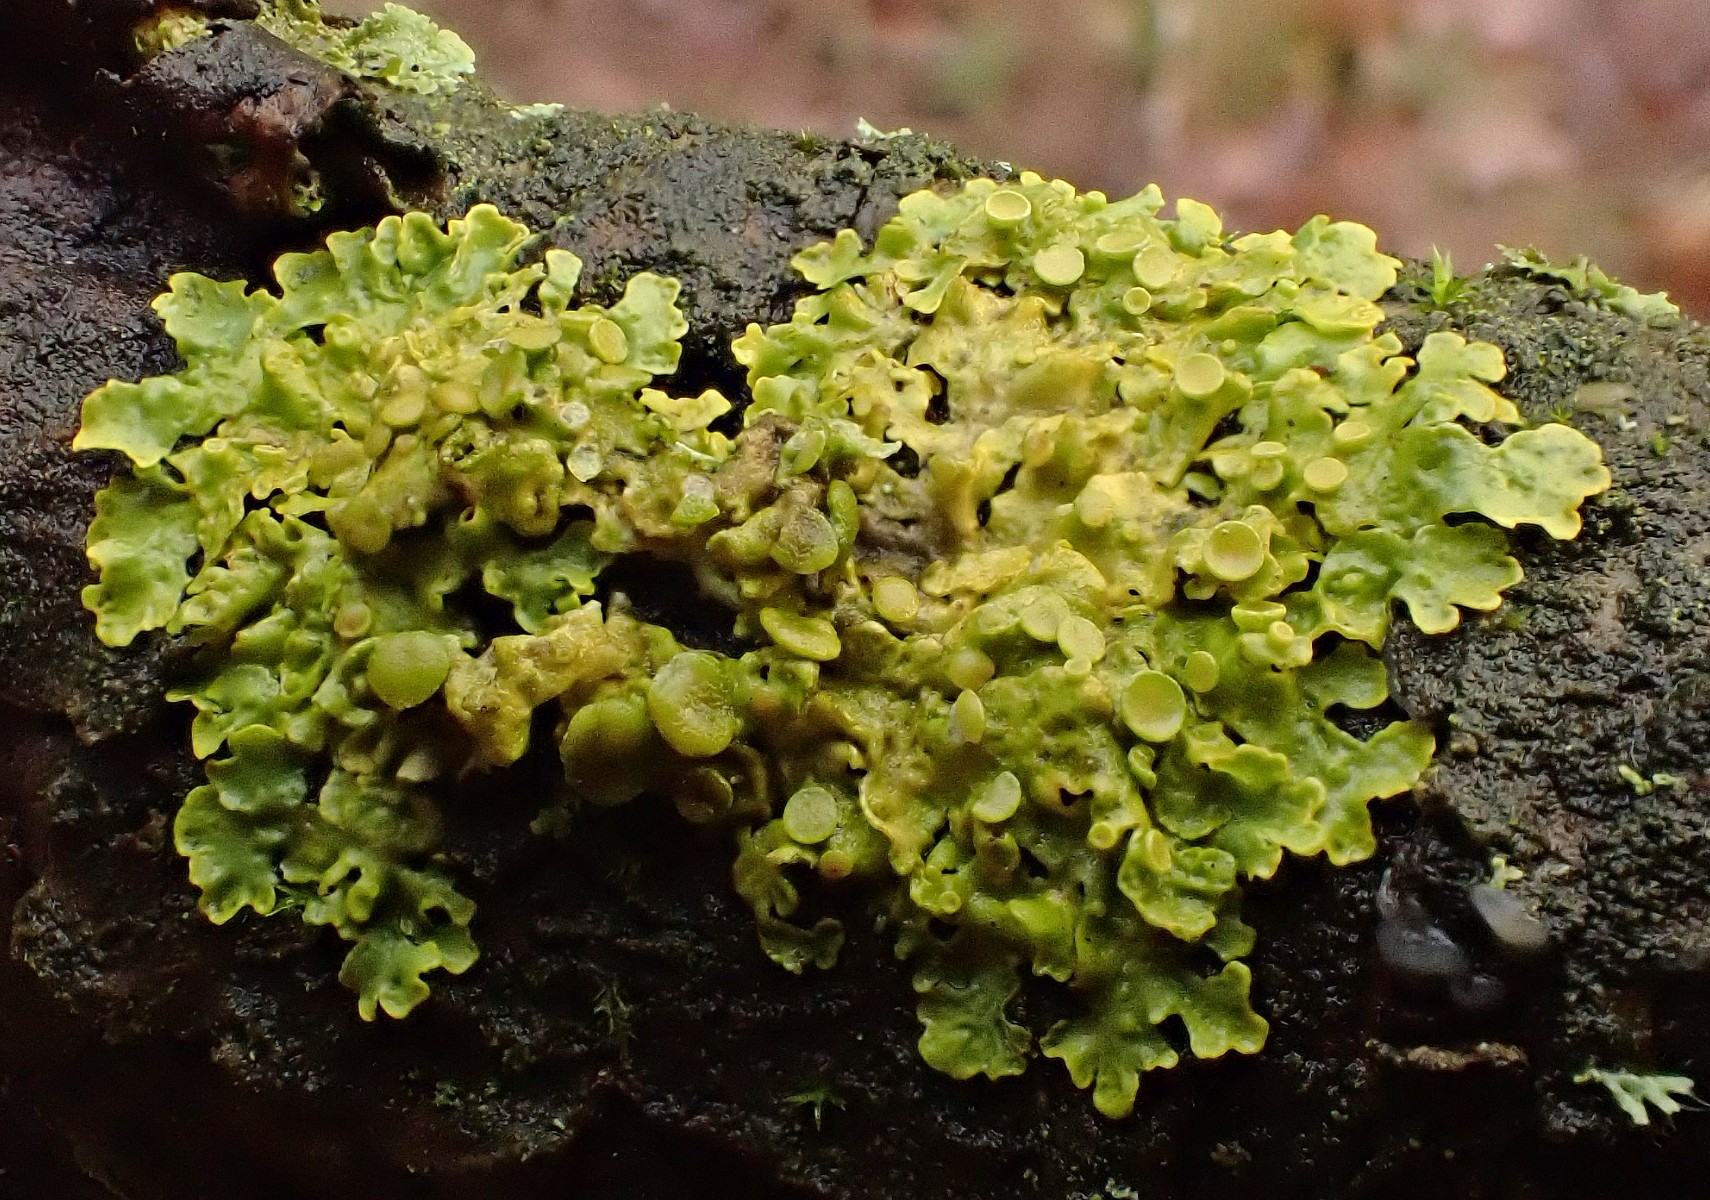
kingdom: Fungi
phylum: Ascomycota
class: Lecanoromycetes
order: Teloschistales
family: Teloschistaceae
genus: Xanthoria
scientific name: Xanthoria parietina
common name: almindelig væggelav
